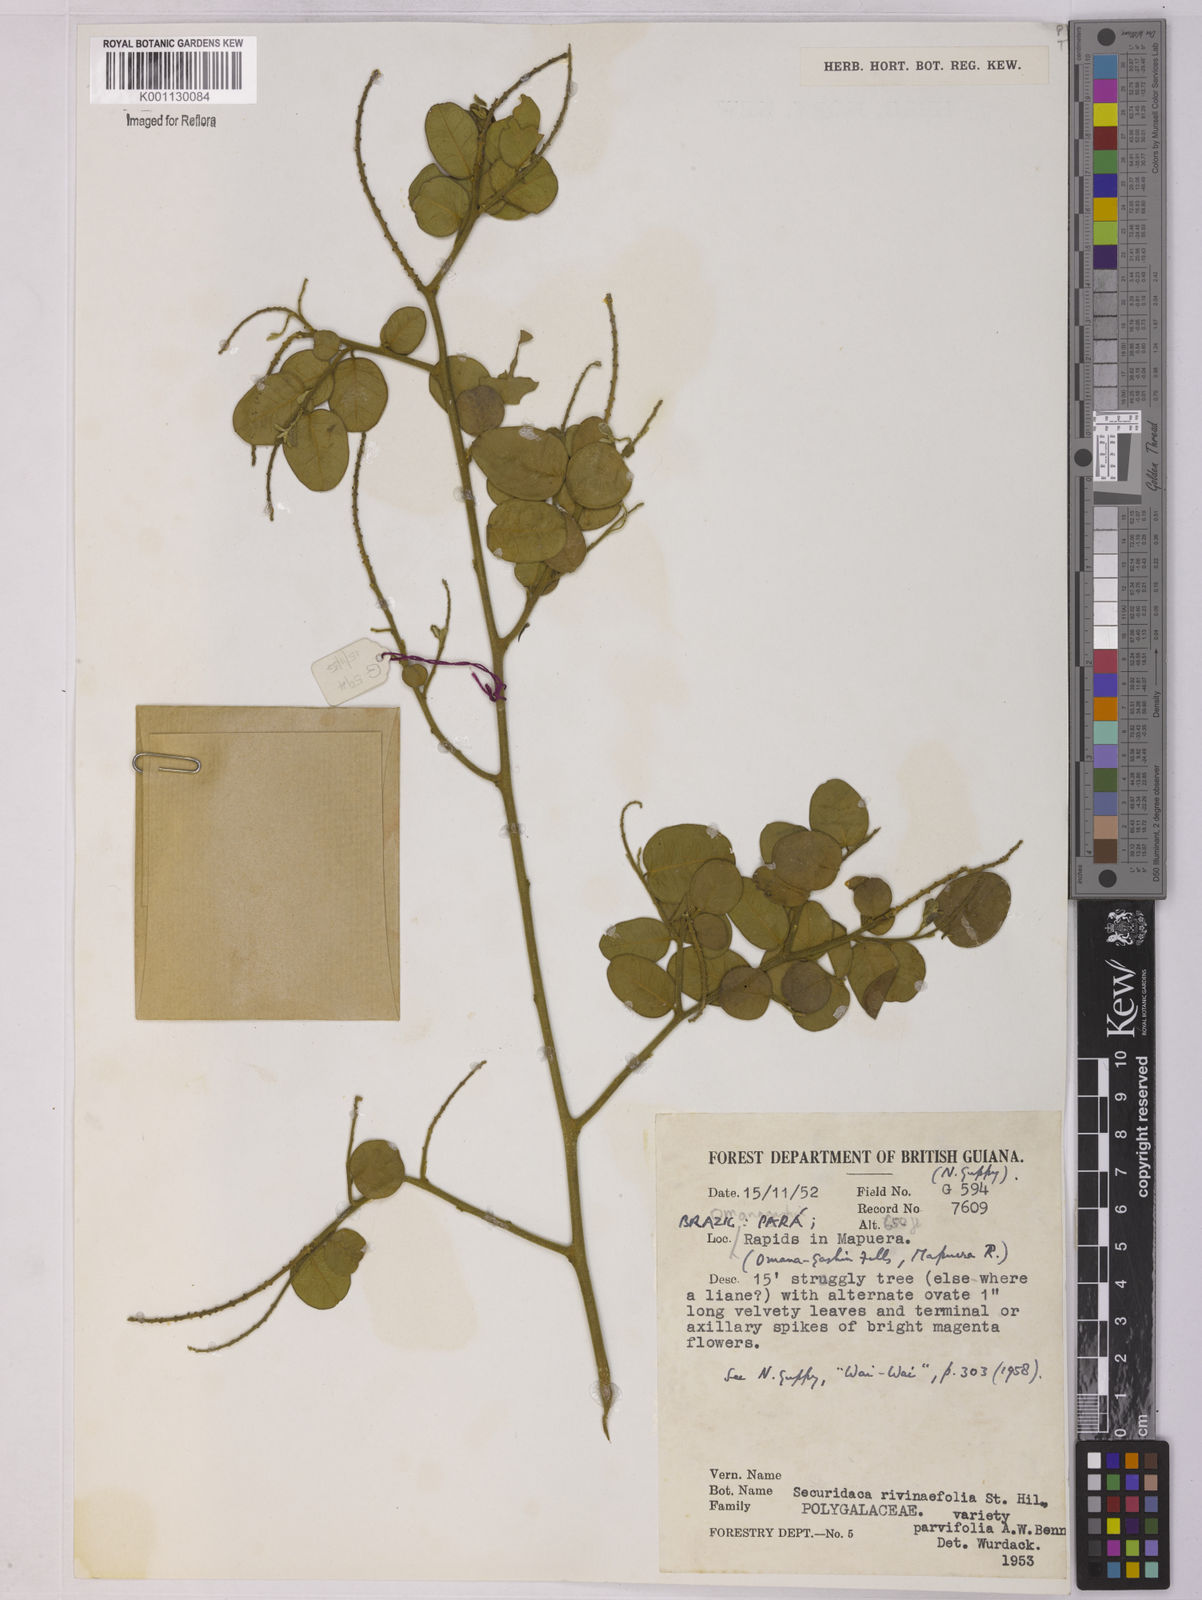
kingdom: Plantae
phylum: Tracheophyta
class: Magnoliopsida
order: Fabales
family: Polygalaceae
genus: Securidaca
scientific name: Securidaca rivinifolia
